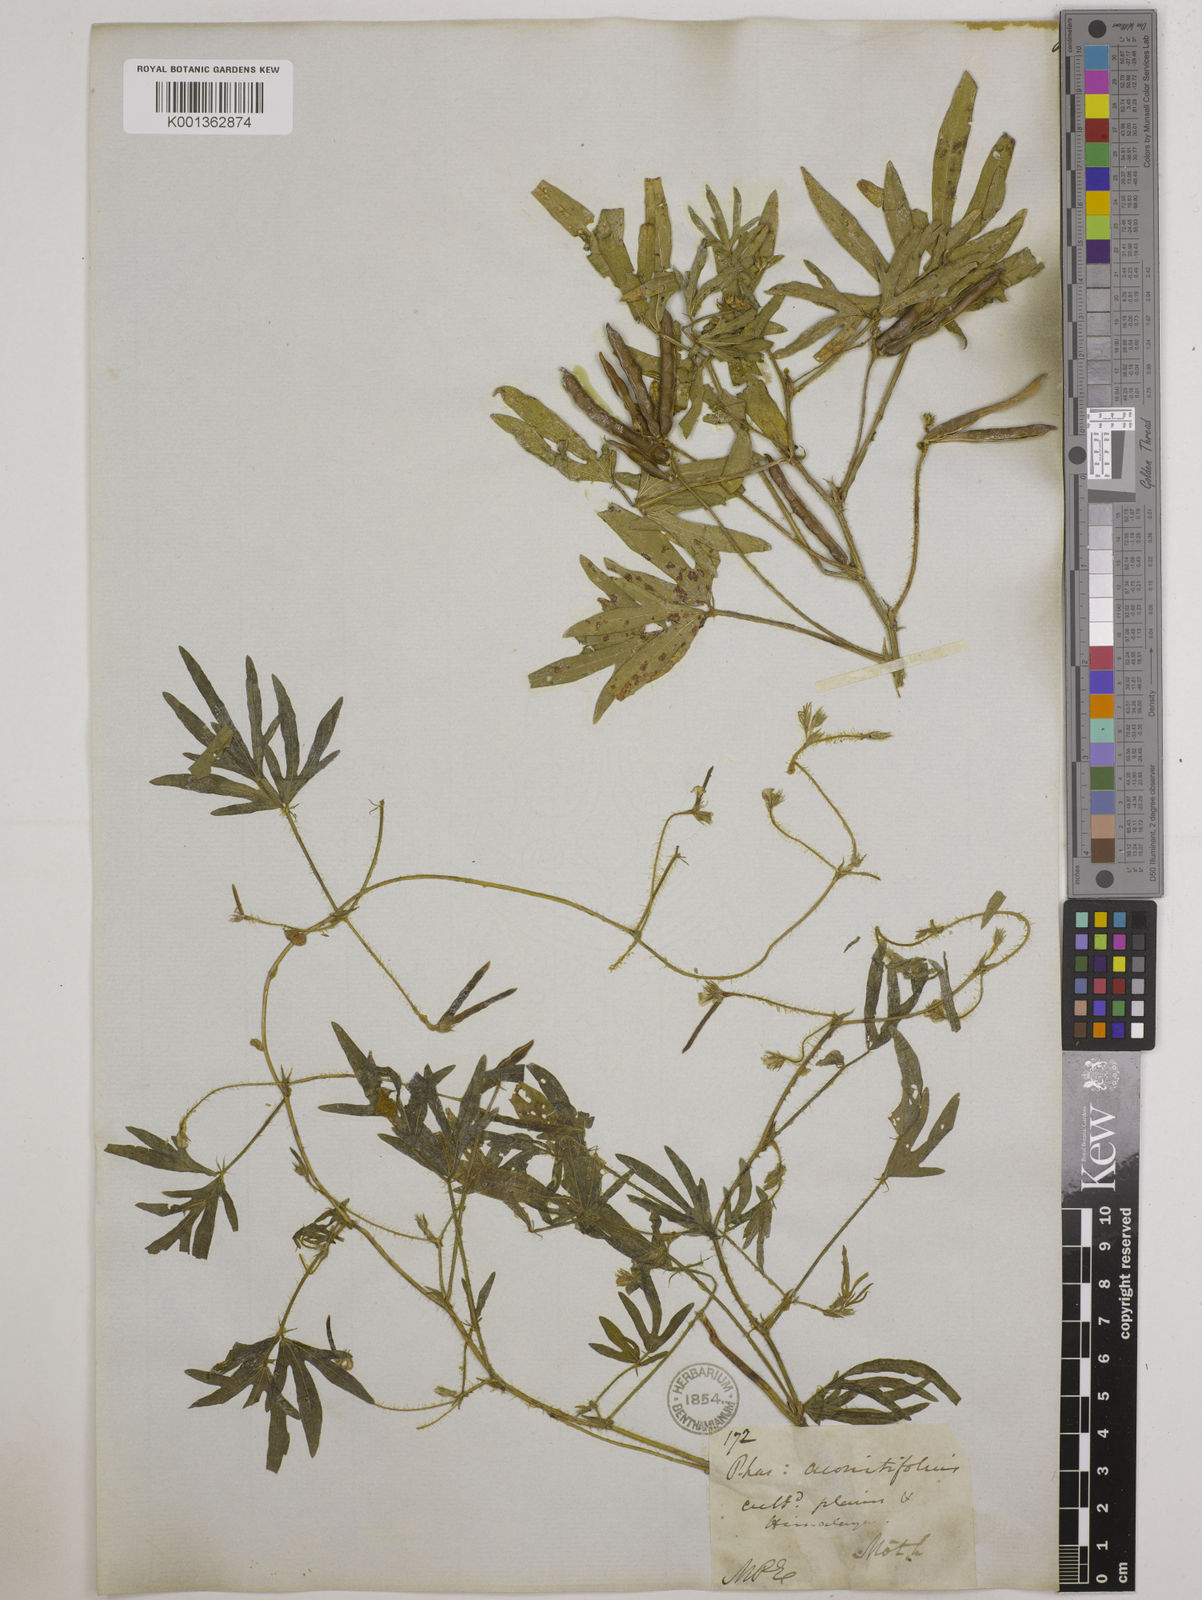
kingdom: Plantae
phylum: Tracheophyta
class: Magnoliopsida
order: Fabales
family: Fabaceae
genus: Vigna
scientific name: Vigna aconitifolia
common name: Dew bean
